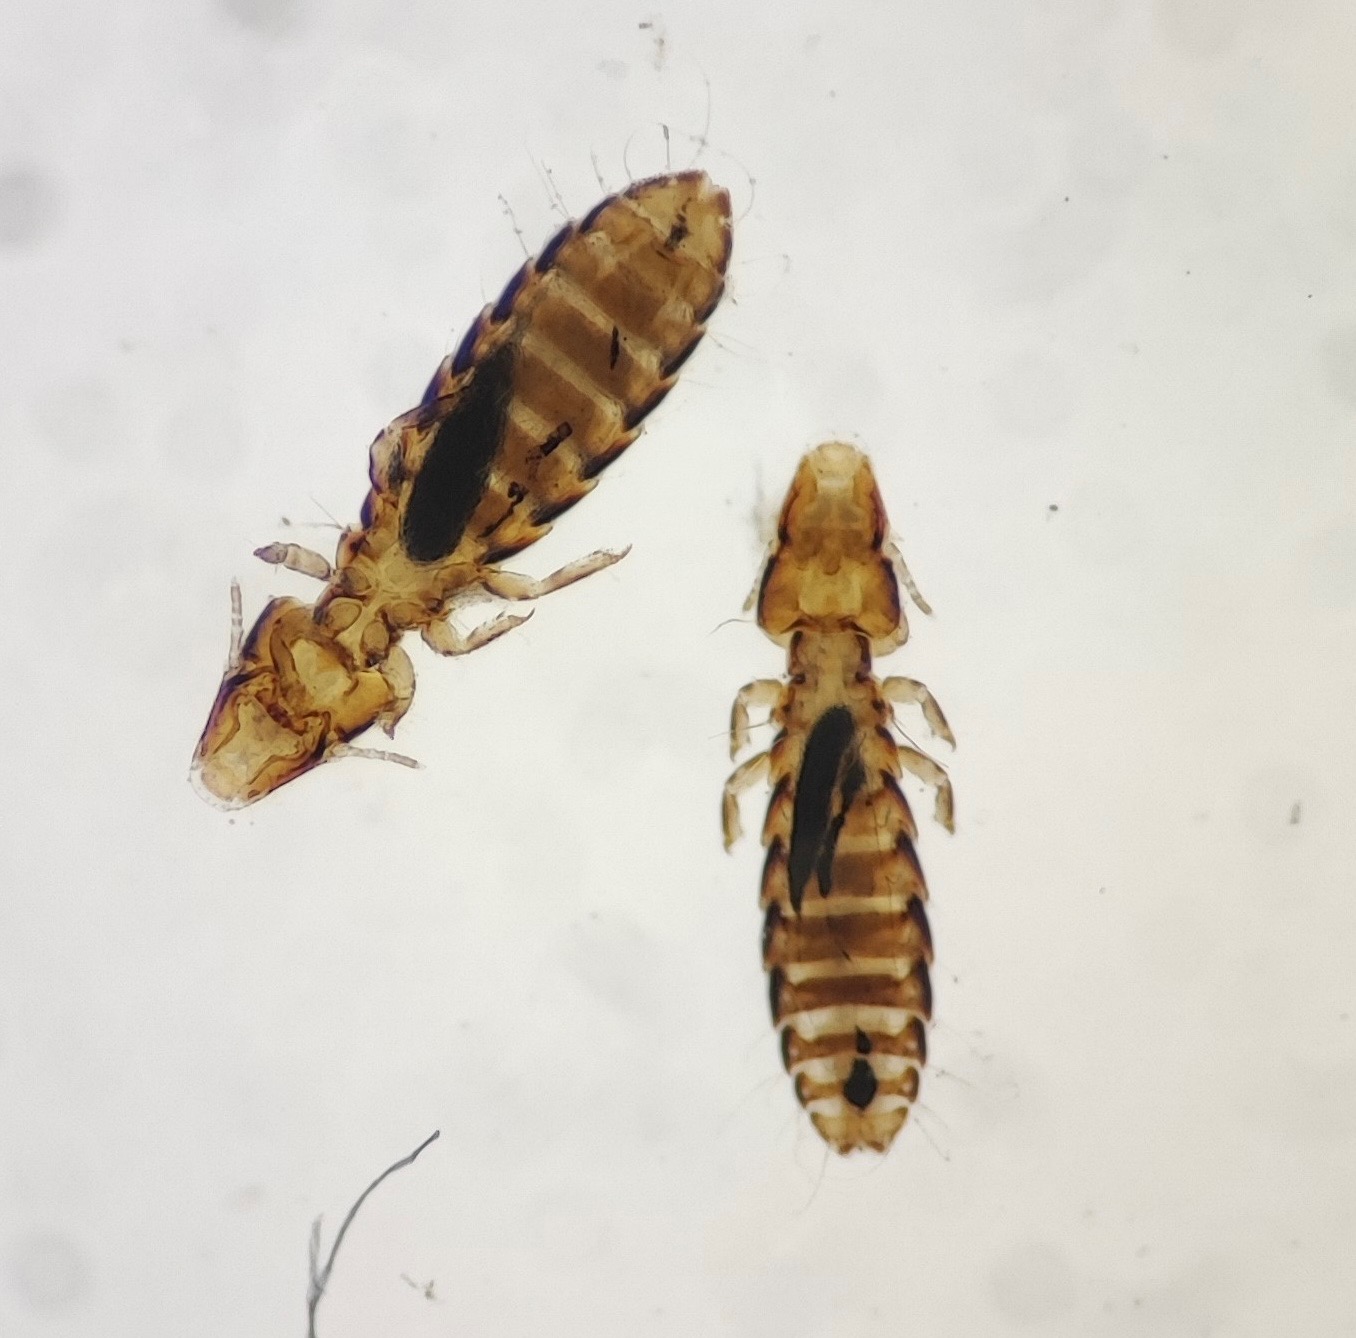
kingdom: Animalia
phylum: Arthropoda
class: Insecta
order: Psocodea
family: Philopteridae
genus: Rallicola
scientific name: Rallicola ortygometrae
